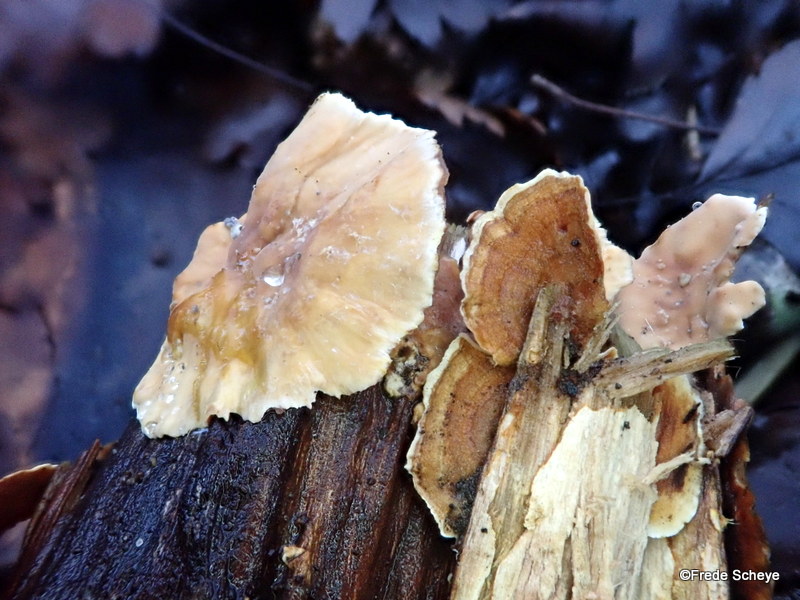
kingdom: Fungi
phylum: Basidiomycota
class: Agaricomycetes
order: Russulales
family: Stereaceae
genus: Stereum
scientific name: Stereum subtomentosum
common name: smuk lædersvamp
